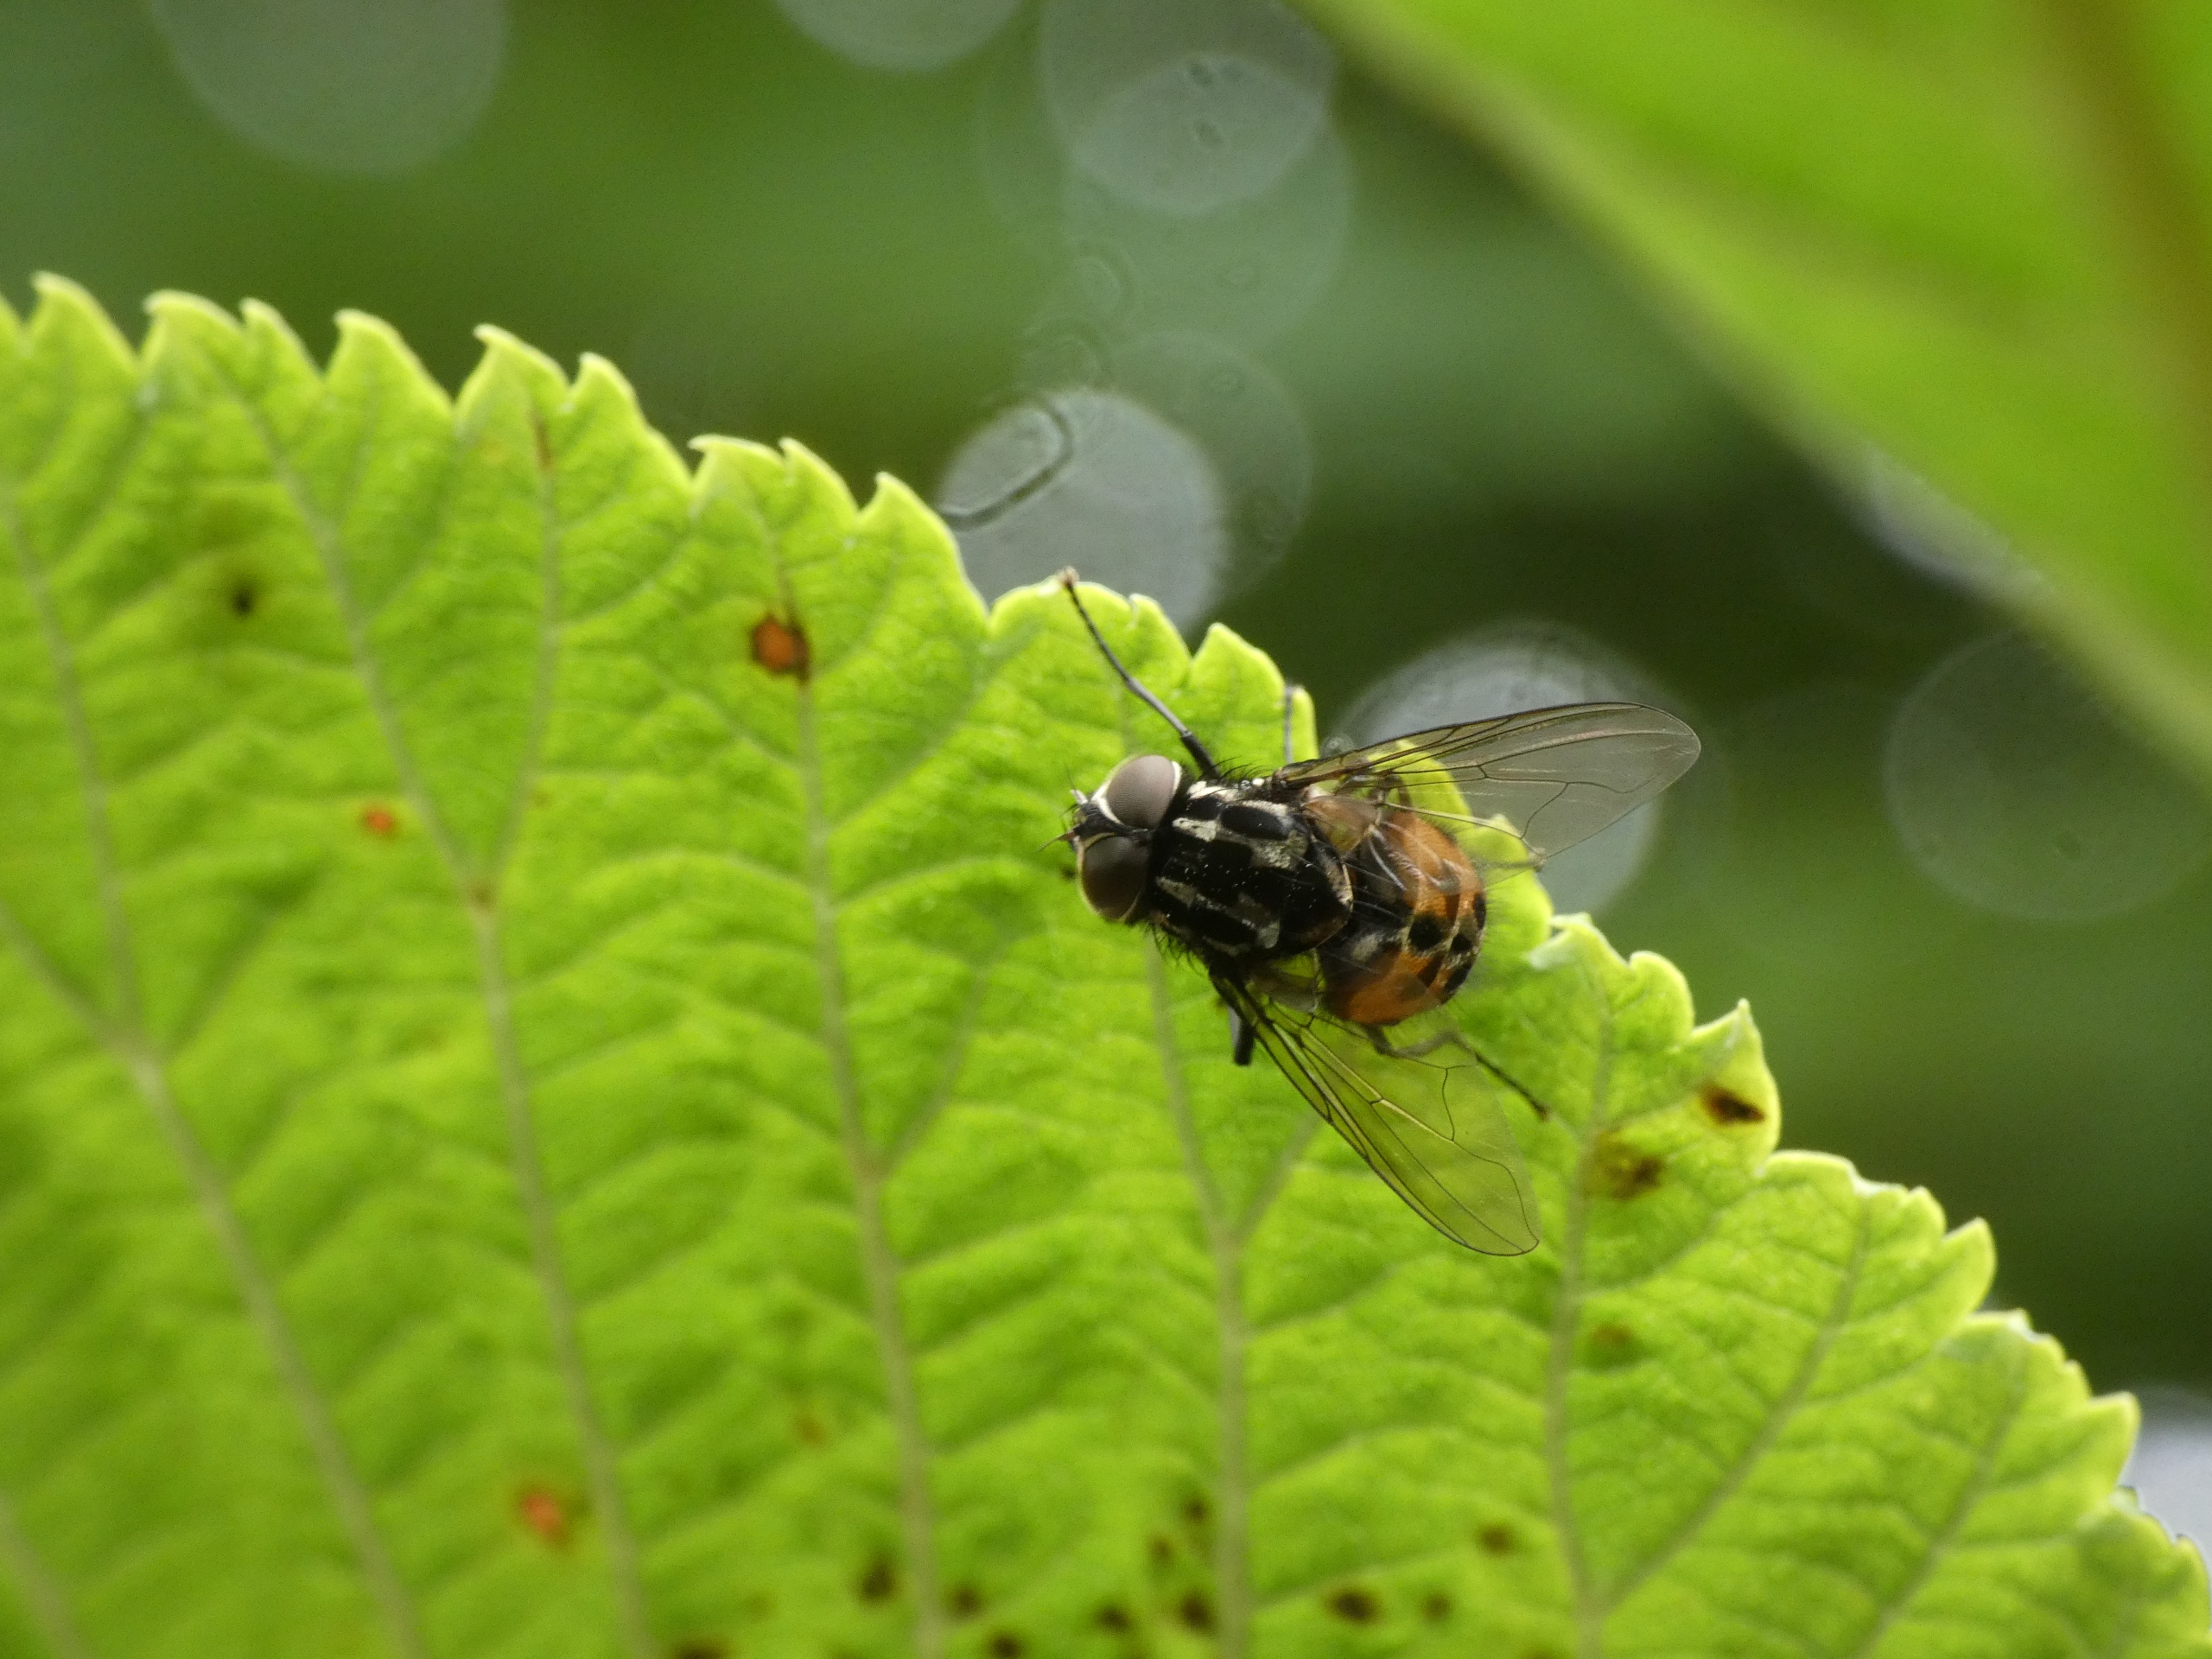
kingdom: Animalia
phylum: Arthropoda
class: Insecta
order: Diptera
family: Muscidae
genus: Graphomya
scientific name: Graphomya maculata
